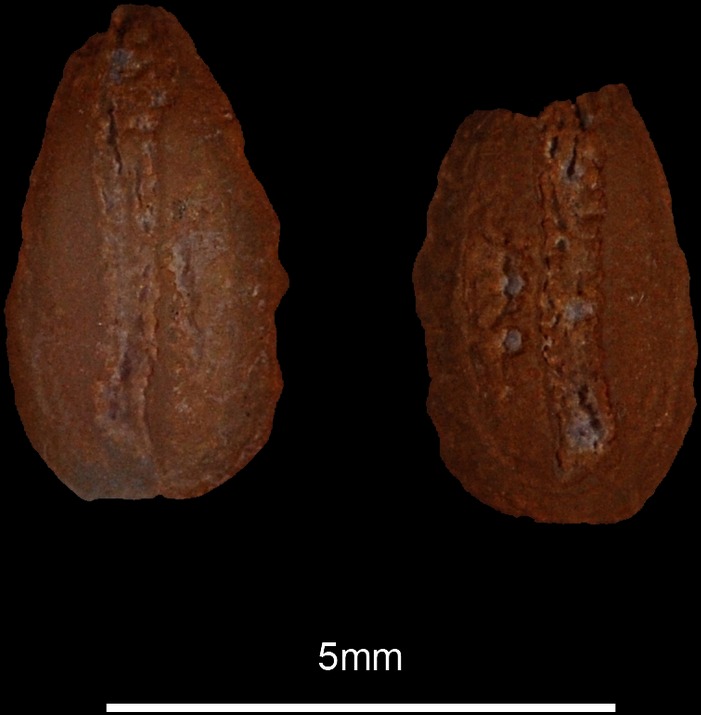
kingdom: Animalia
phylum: Chordata
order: Beloniformes
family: Belonidae
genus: Belone
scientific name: Belone belone
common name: Garfish
